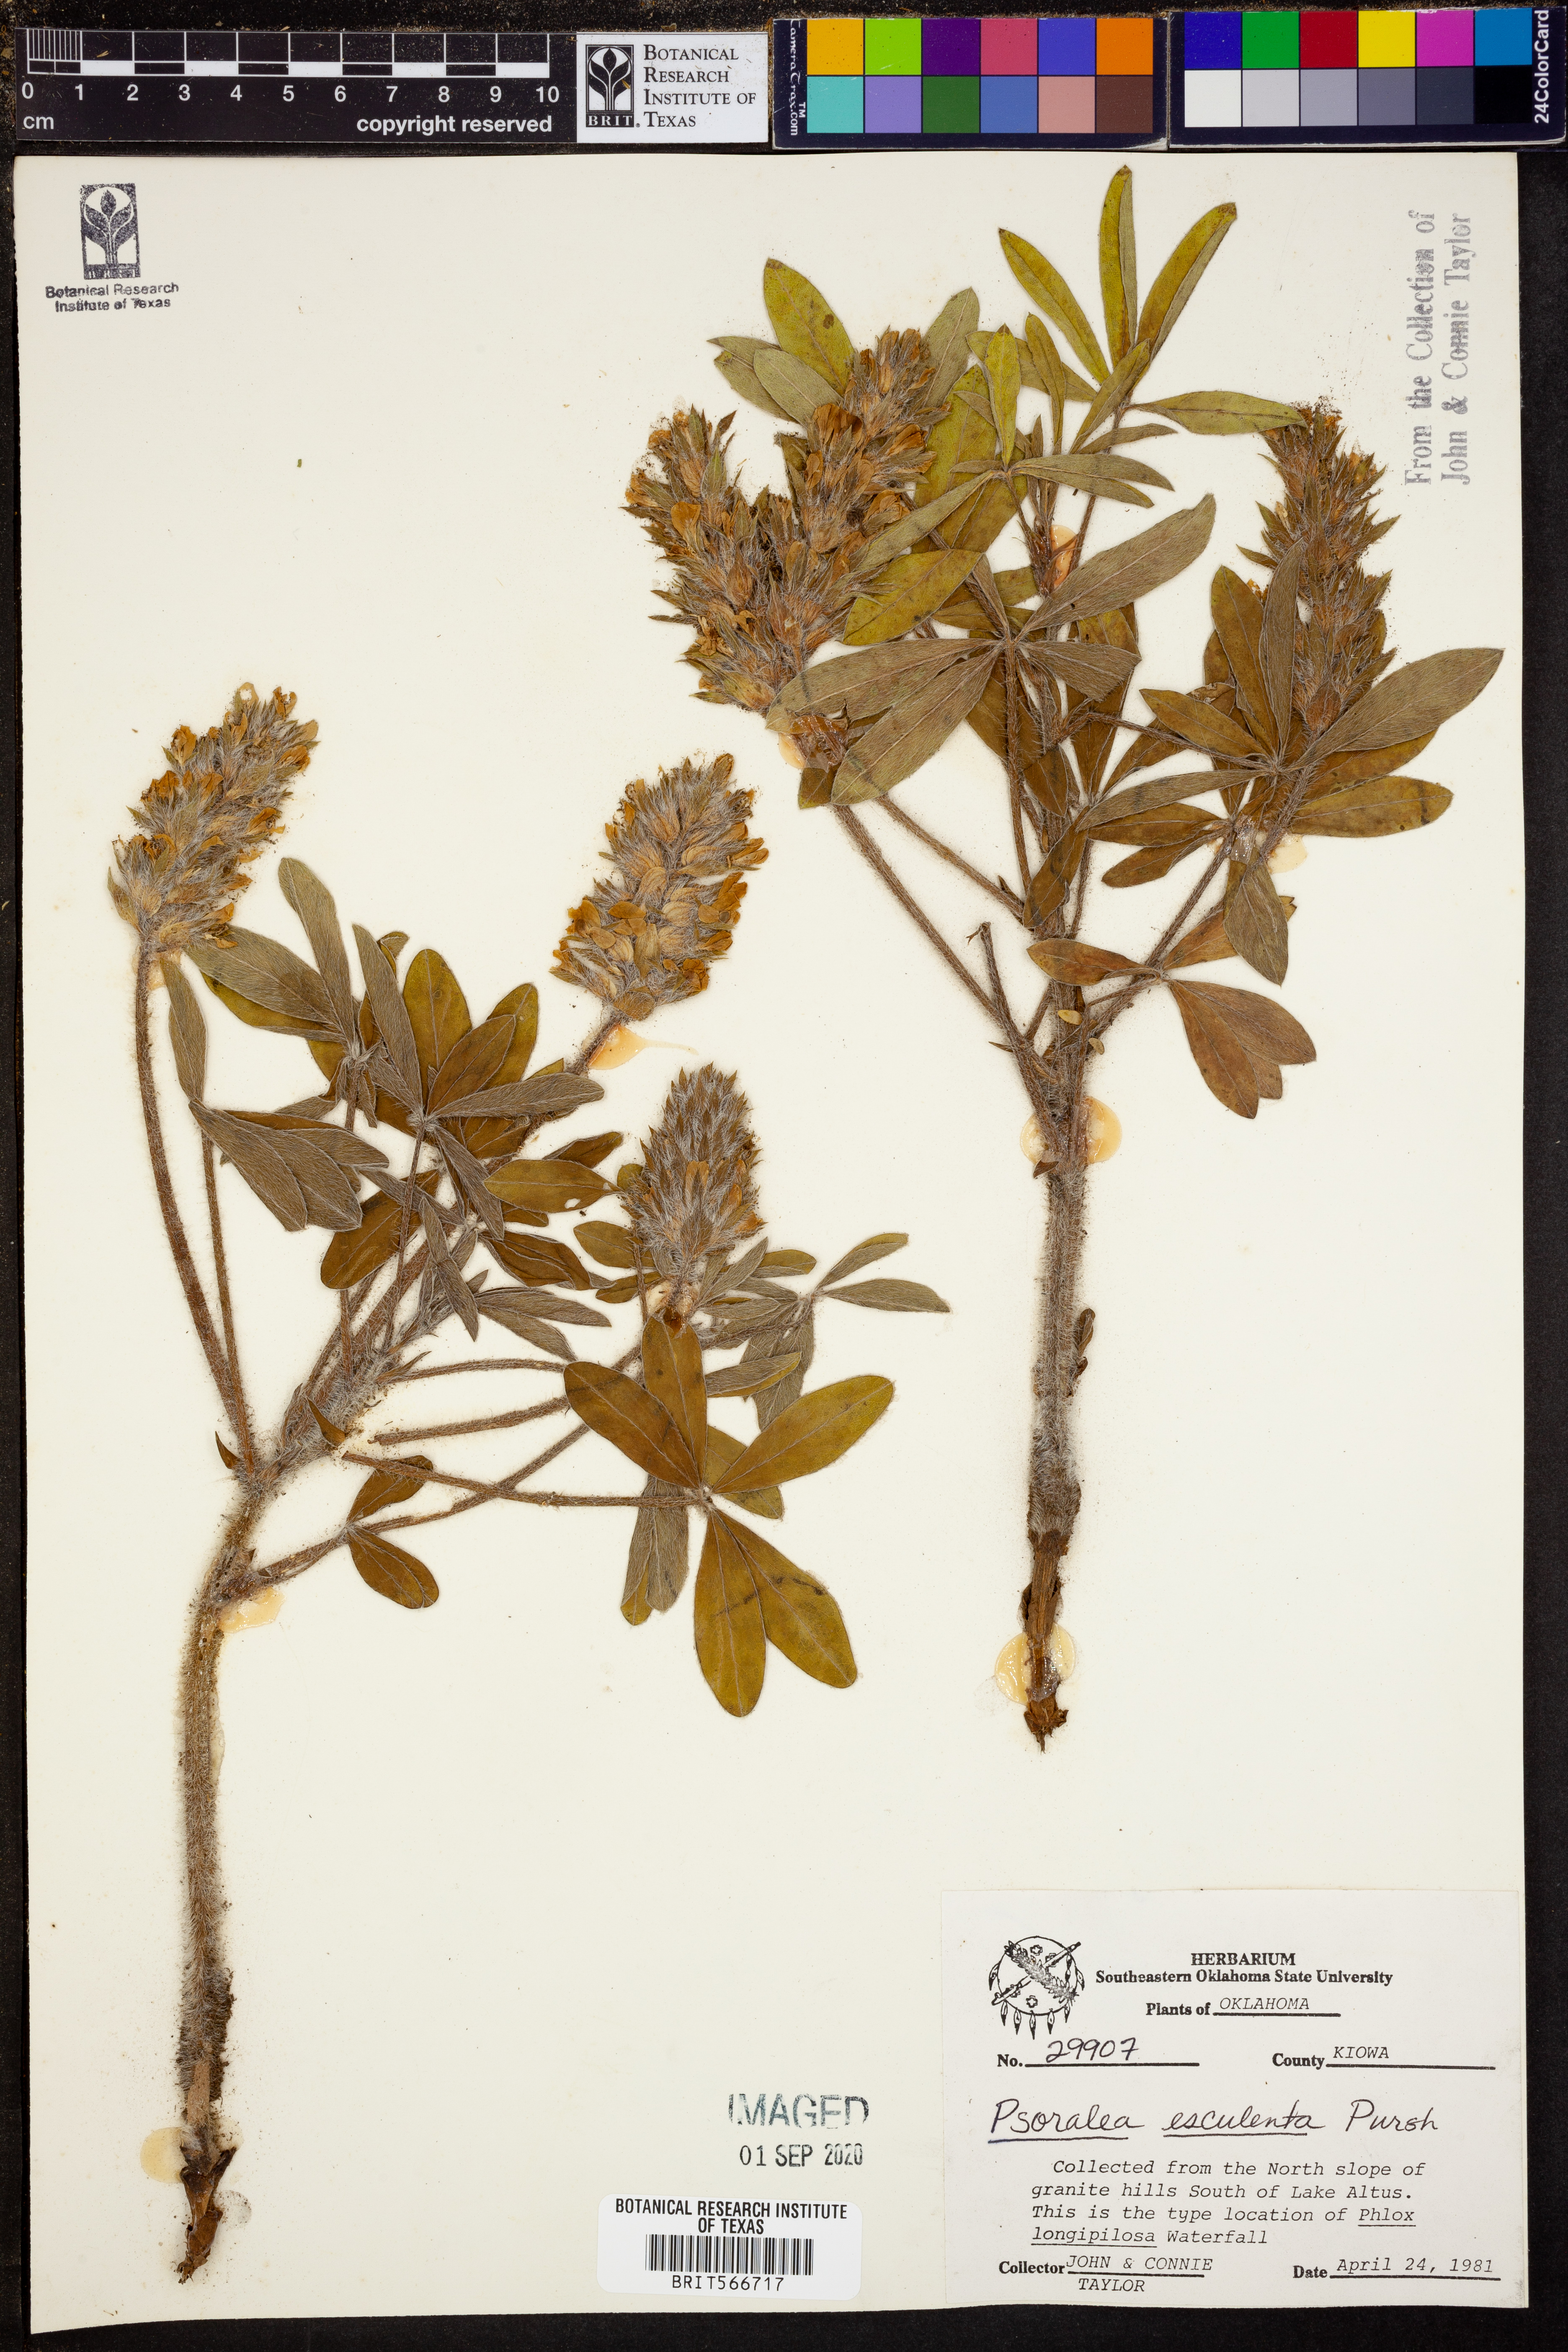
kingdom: Plantae
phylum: Tracheophyta
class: Magnoliopsida
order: Fabales
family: Fabaceae
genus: Pediomelum
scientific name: Pediomelum humile
